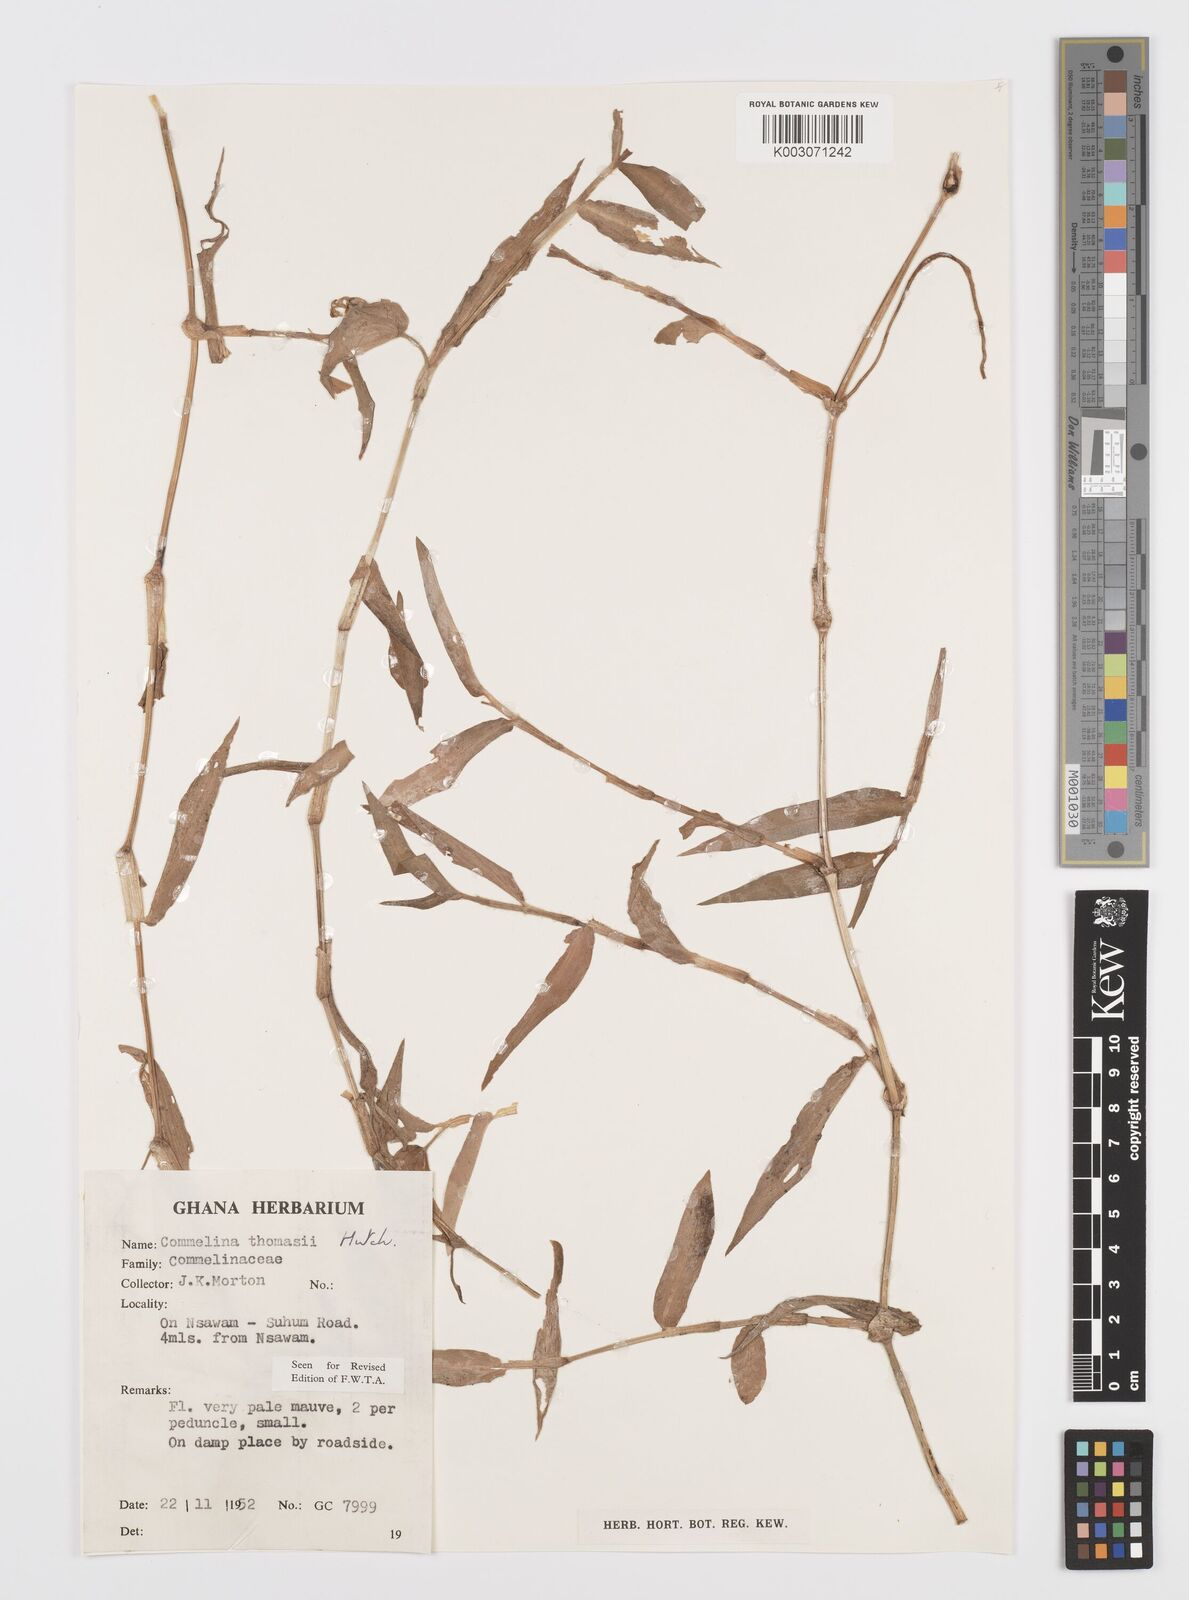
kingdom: Plantae
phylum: Tracheophyta
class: Liliopsida
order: Commelinales
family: Commelinaceae
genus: Commelina
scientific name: Commelina acutispatha
